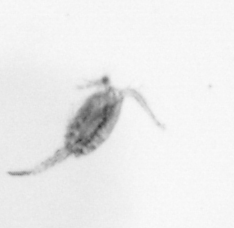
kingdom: Animalia
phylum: Arthropoda
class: Copepoda
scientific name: Copepoda
